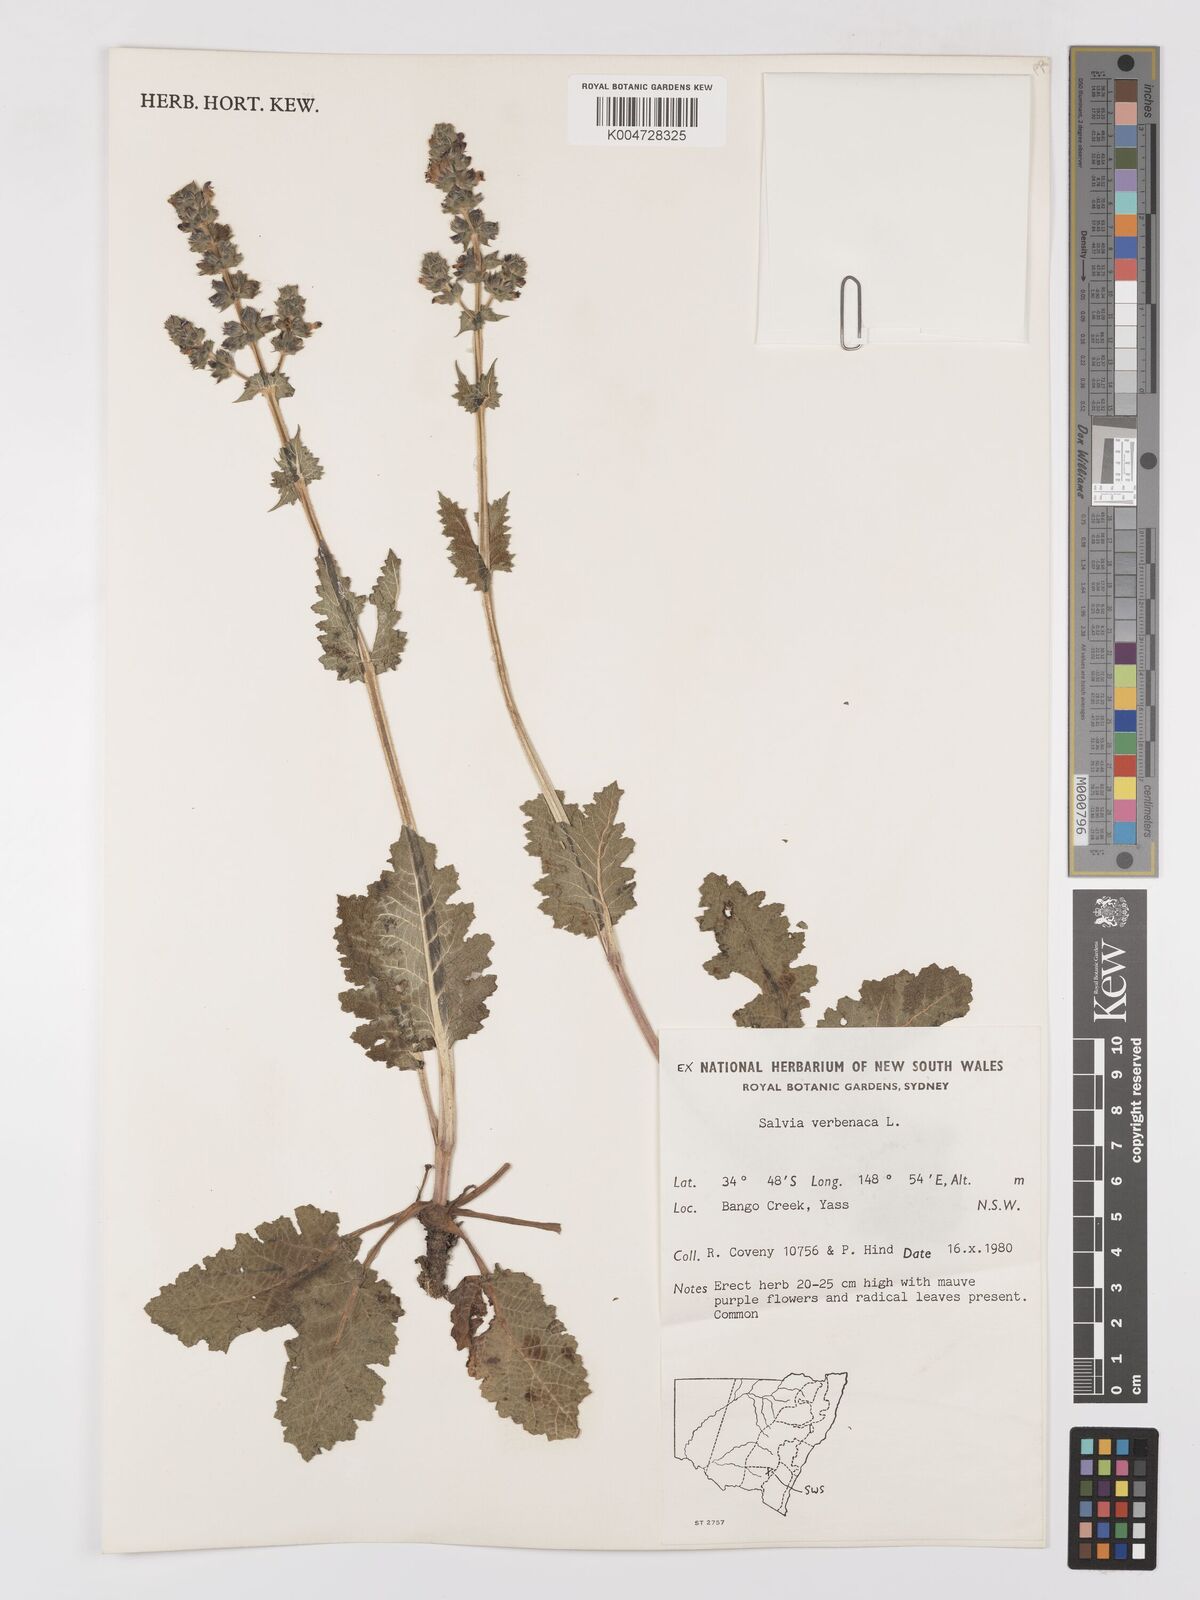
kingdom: Plantae
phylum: Tracheophyta
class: Magnoliopsida
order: Lamiales
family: Lamiaceae
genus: Salvia
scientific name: Salvia verbenaca
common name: Wild clary
